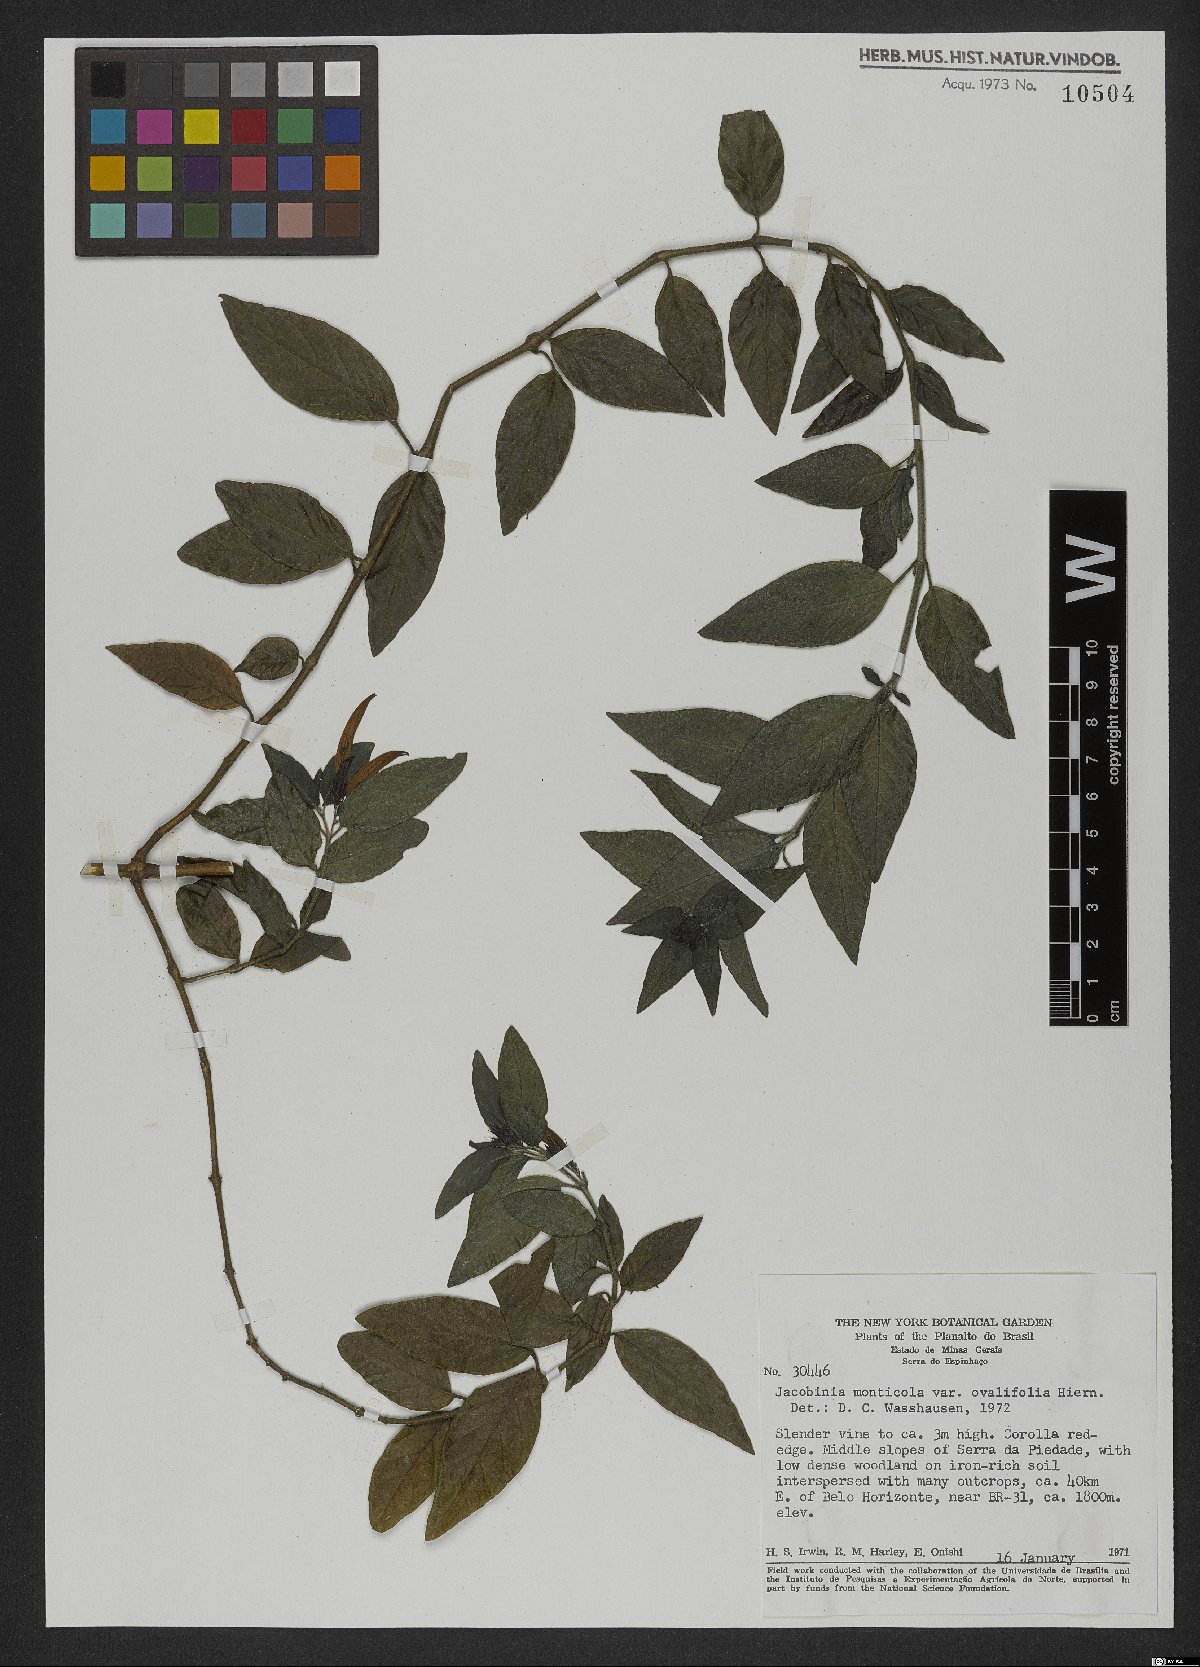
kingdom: Plantae
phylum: Tracheophyta
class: Magnoliopsida
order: Lamiales
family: Acanthaceae
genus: Justicia
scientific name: Justicia monticola
